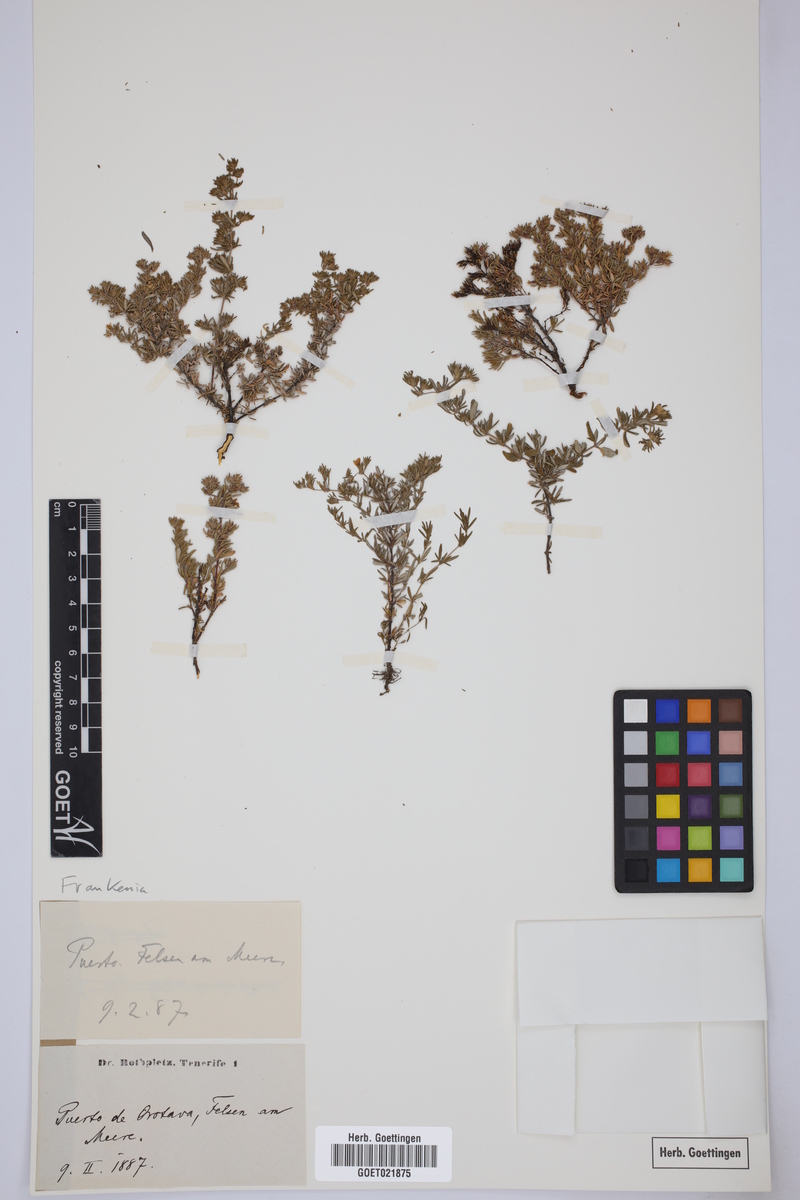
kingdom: Plantae
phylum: Tracheophyta
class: Magnoliopsida
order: Caryophyllales
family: Frankeniaceae
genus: Frankenia
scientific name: Frankenia
